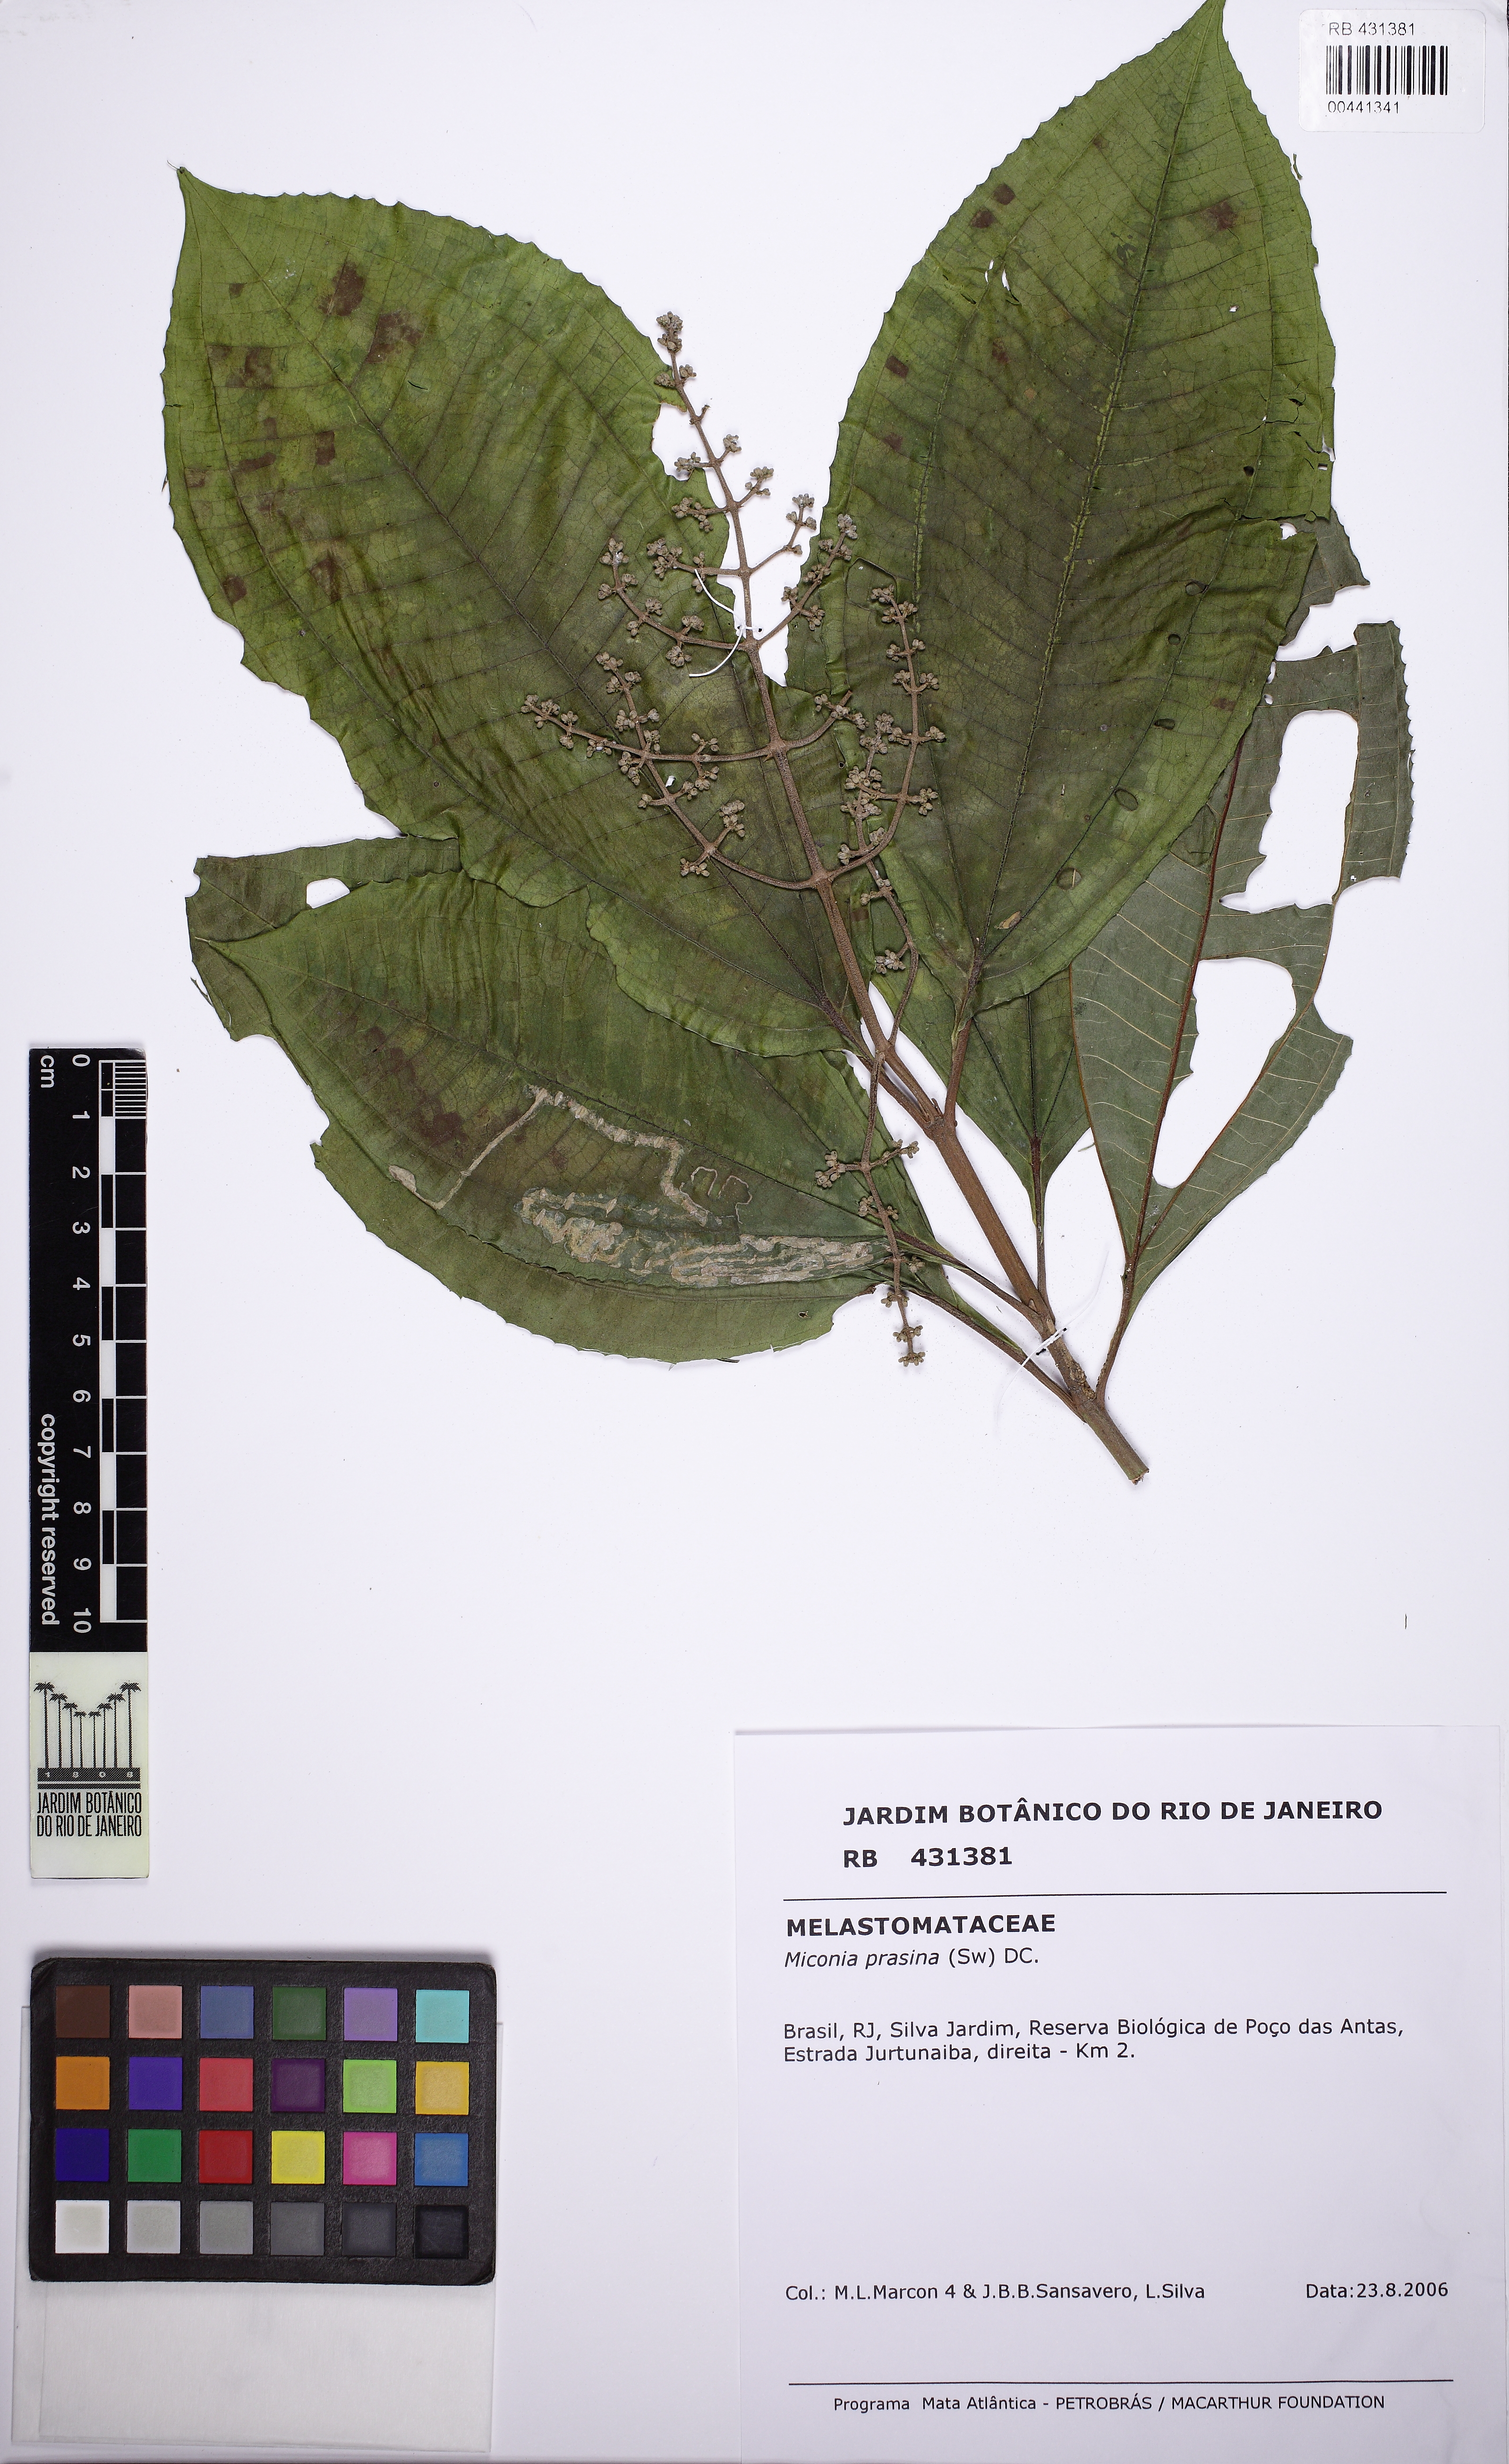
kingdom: Plantae
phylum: Tracheophyta
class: Magnoliopsida
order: Myrtales
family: Melastomataceae
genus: Miconia
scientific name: Miconia prasina
